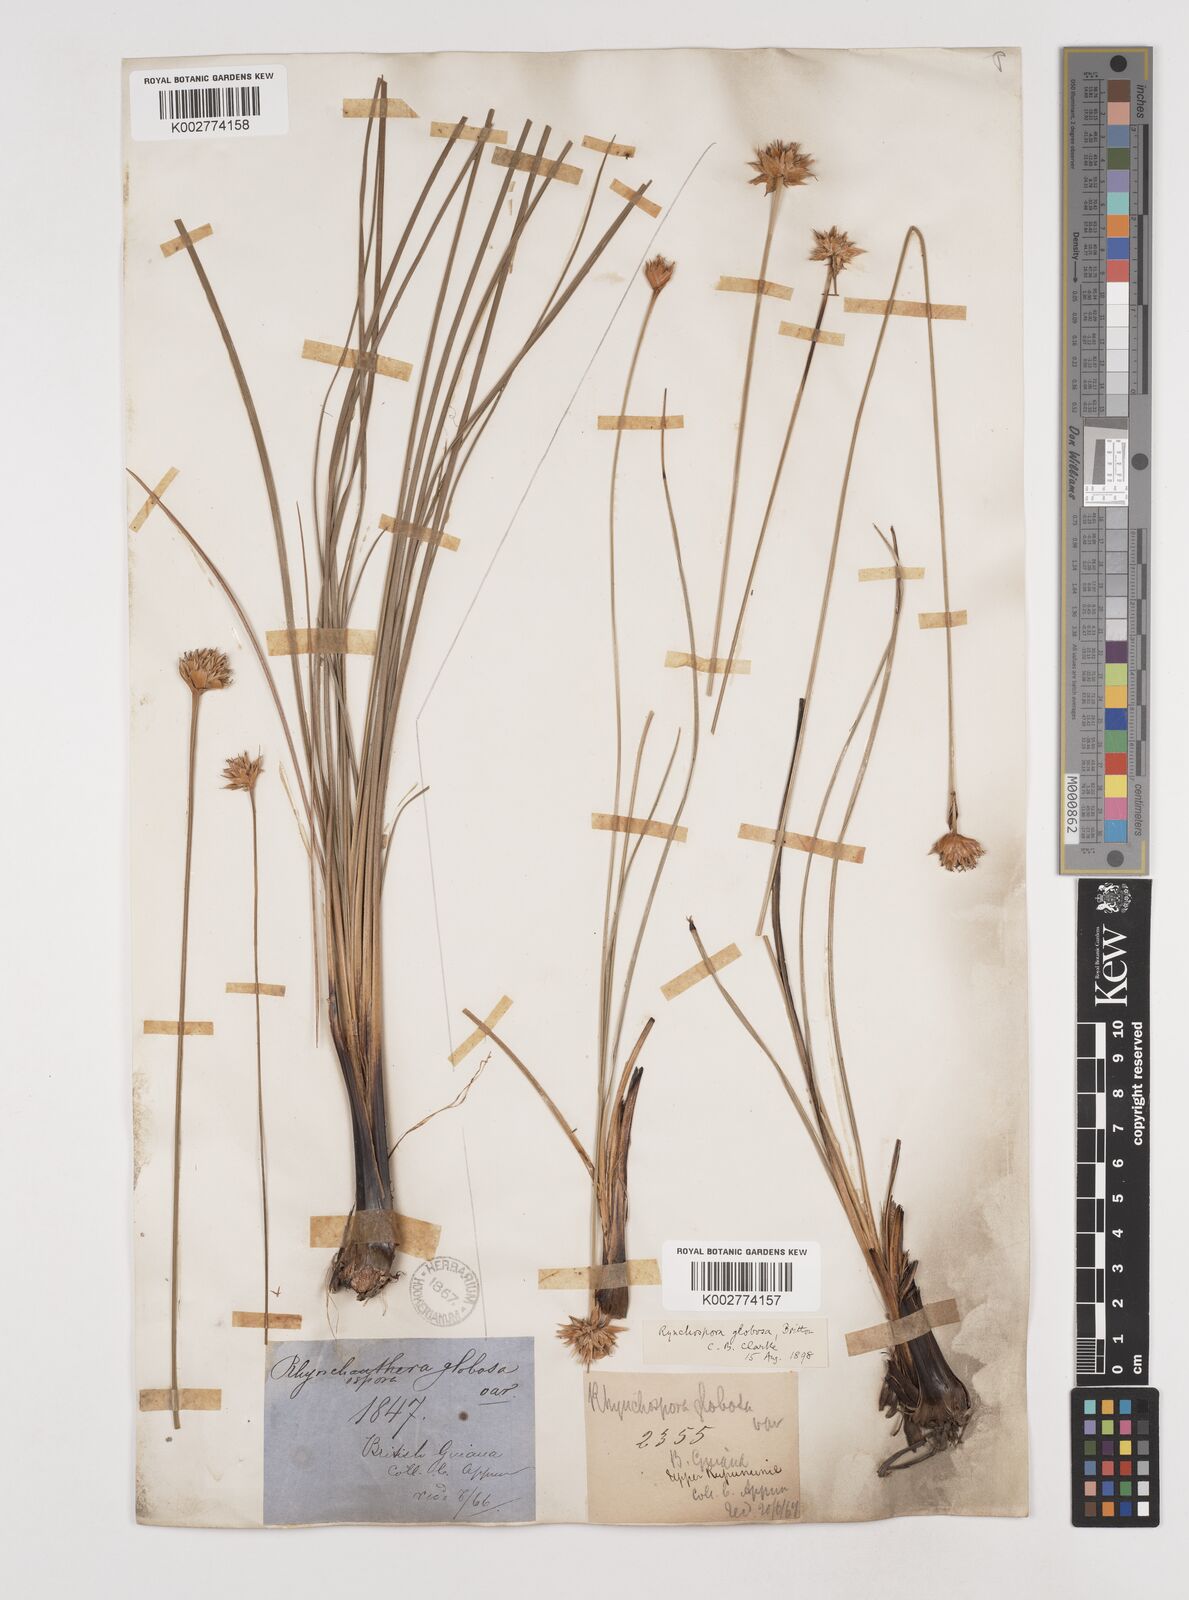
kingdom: Plantae
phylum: Tracheophyta
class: Liliopsida
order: Poales
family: Cyperaceae
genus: Rhynchospora
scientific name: Rhynchospora globosa
